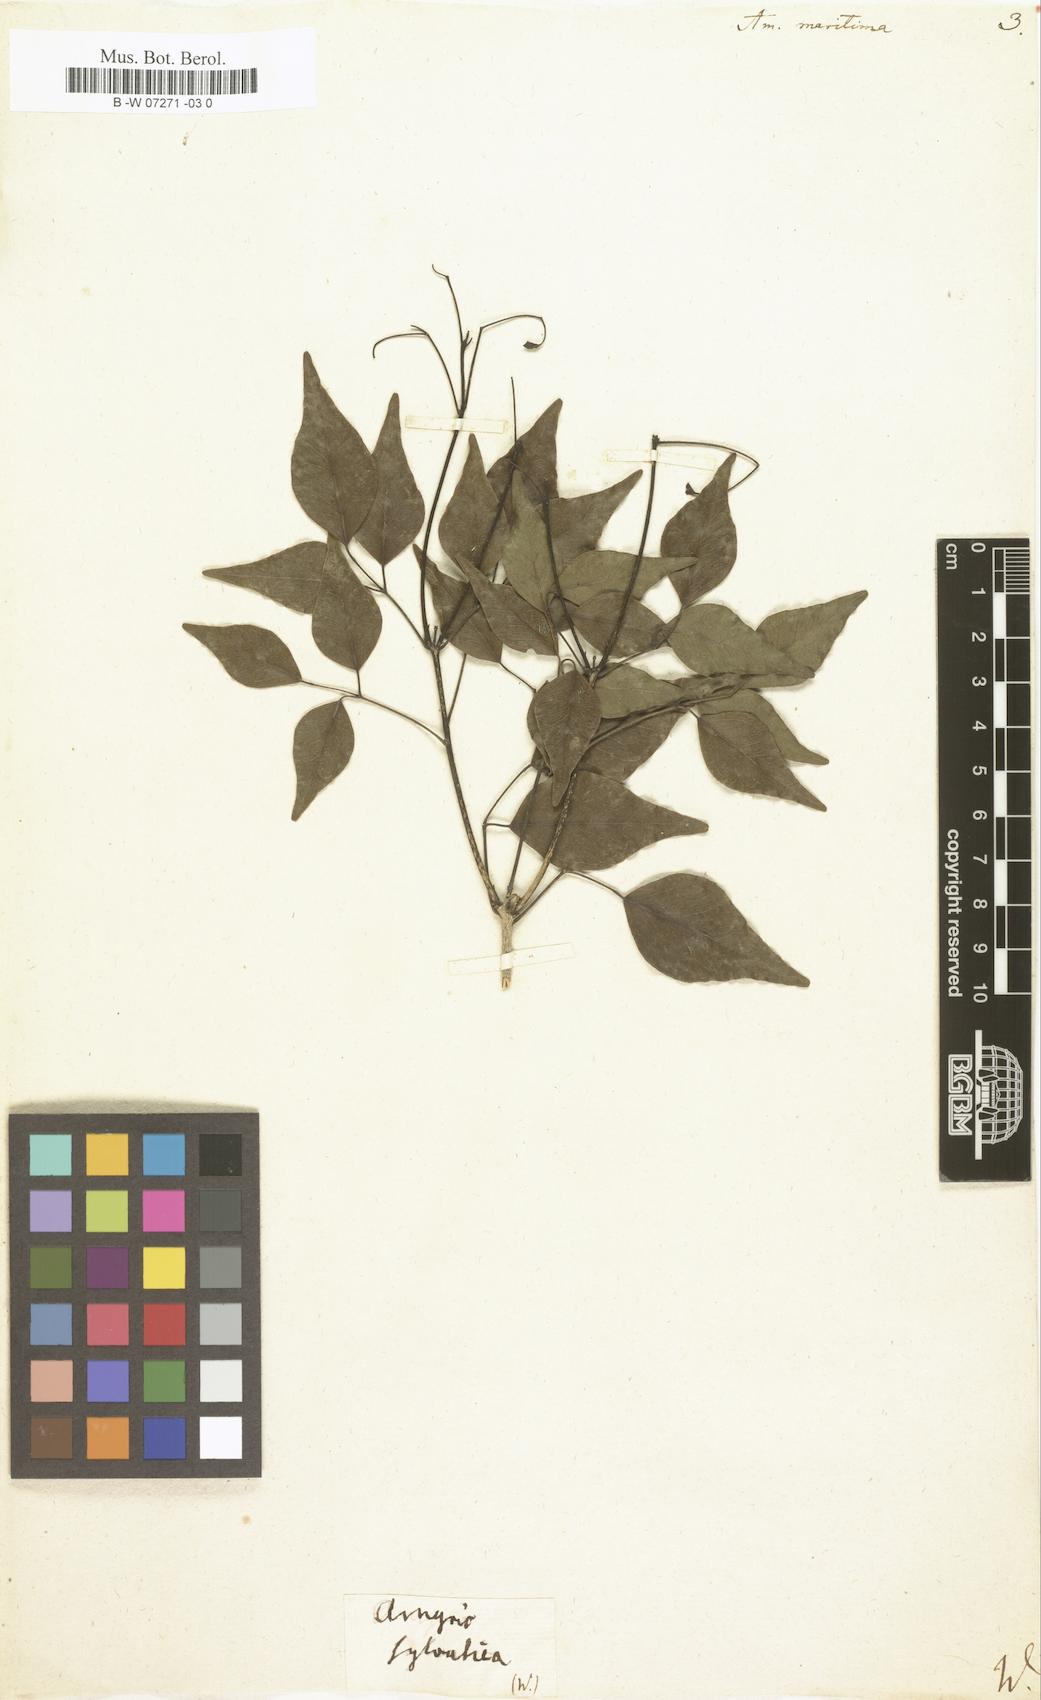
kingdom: Plantae
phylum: Tracheophyta
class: Magnoliopsida
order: Sapindales
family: Rutaceae
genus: Amyris
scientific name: Amyris elemifera
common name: Sea amyris
